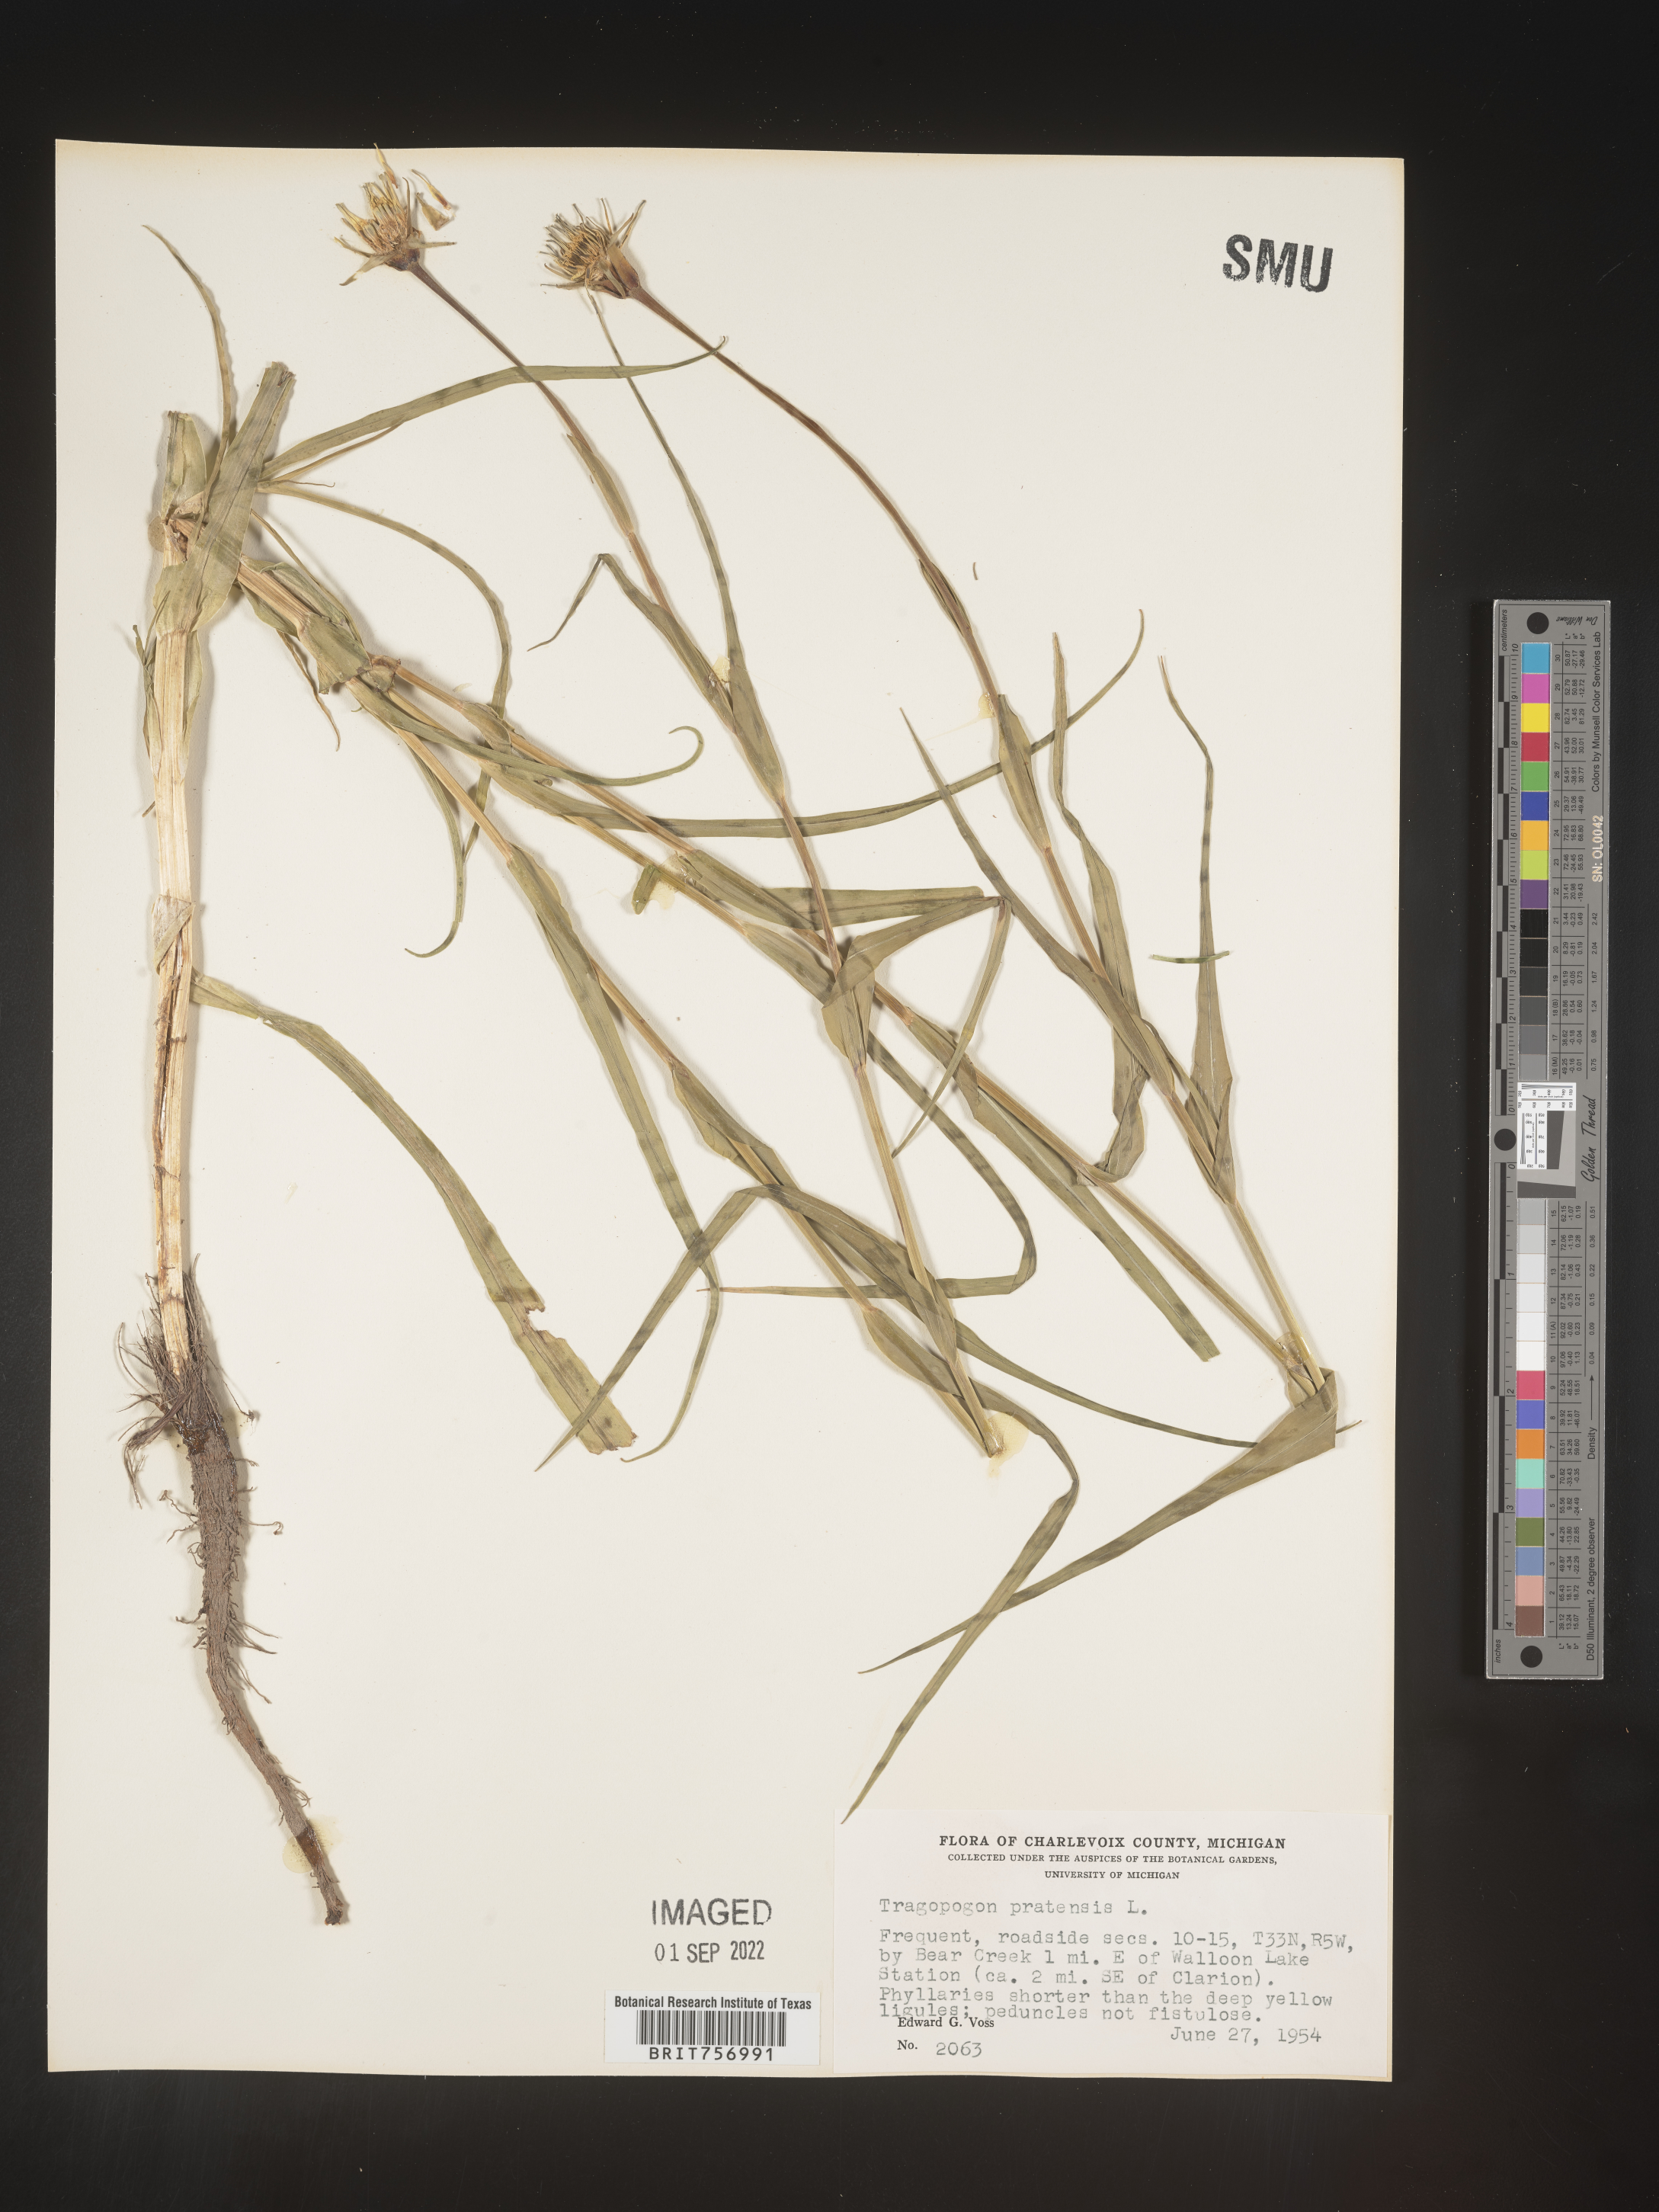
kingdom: Plantae
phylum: Tracheophyta
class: Magnoliopsida
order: Asterales
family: Asteraceae
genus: Tragopogon
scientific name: Tragopogon pratensis
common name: Goat's-beard
